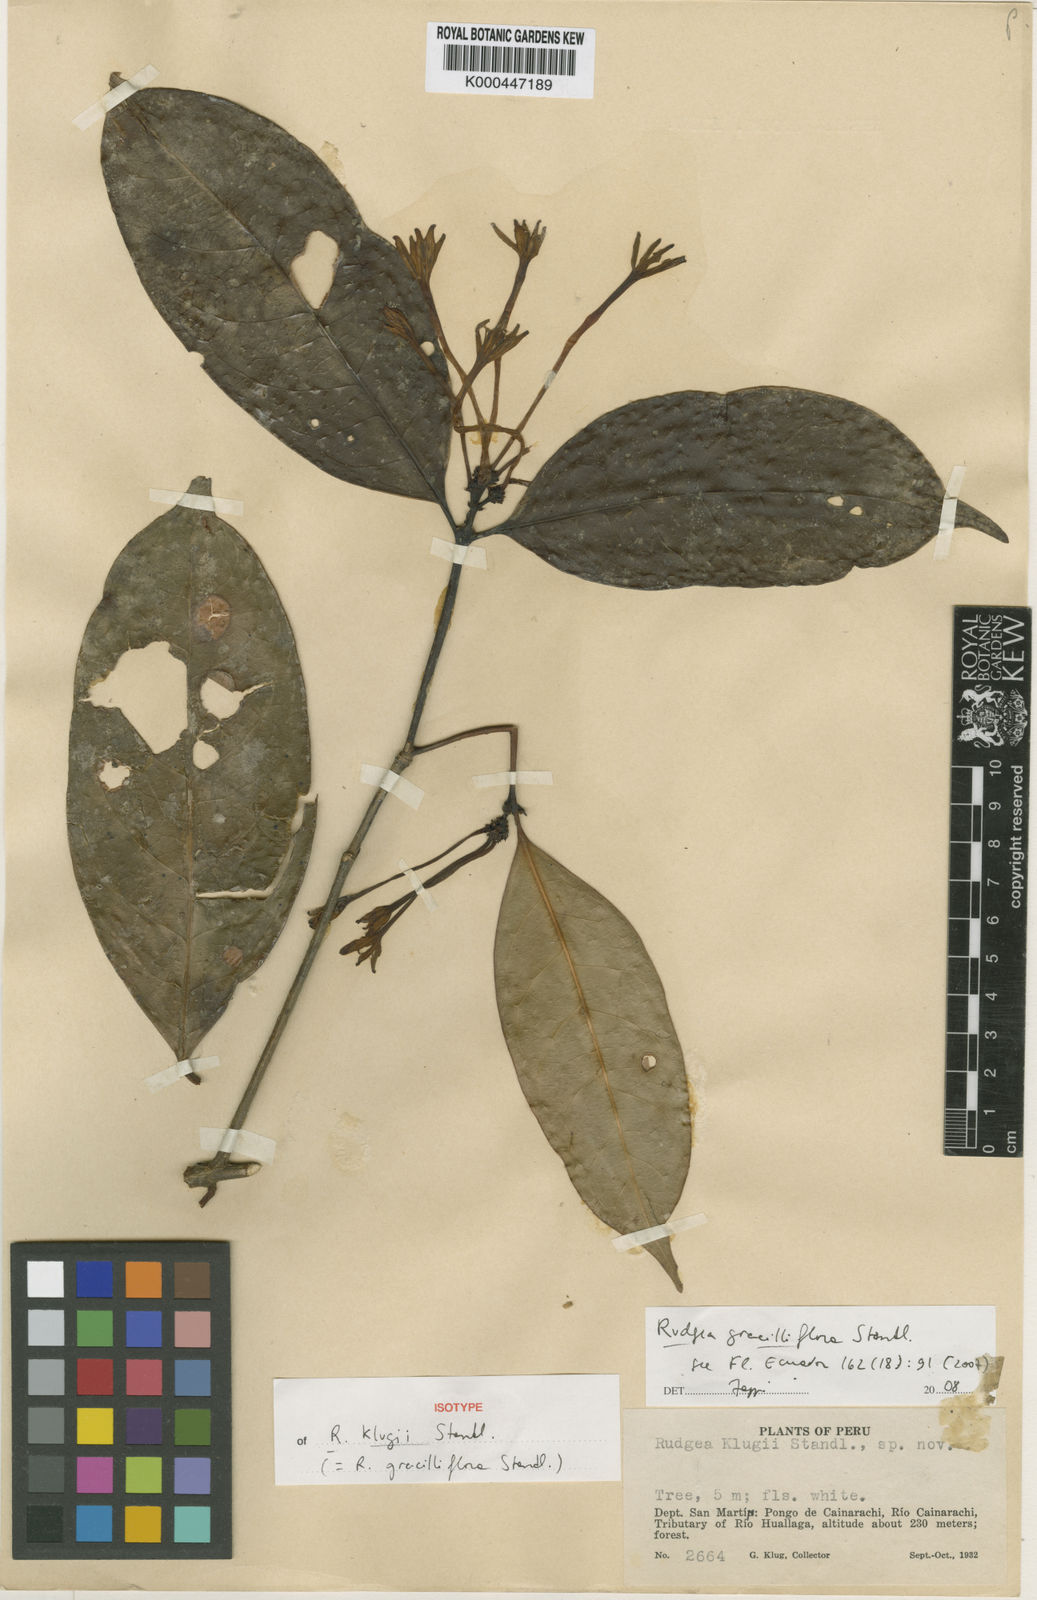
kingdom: Plantae
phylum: Tracheophyta
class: Magnoliopsida
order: Gentianales
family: Rubiaceae
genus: Rudgea
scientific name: Rudgea graciliflora
